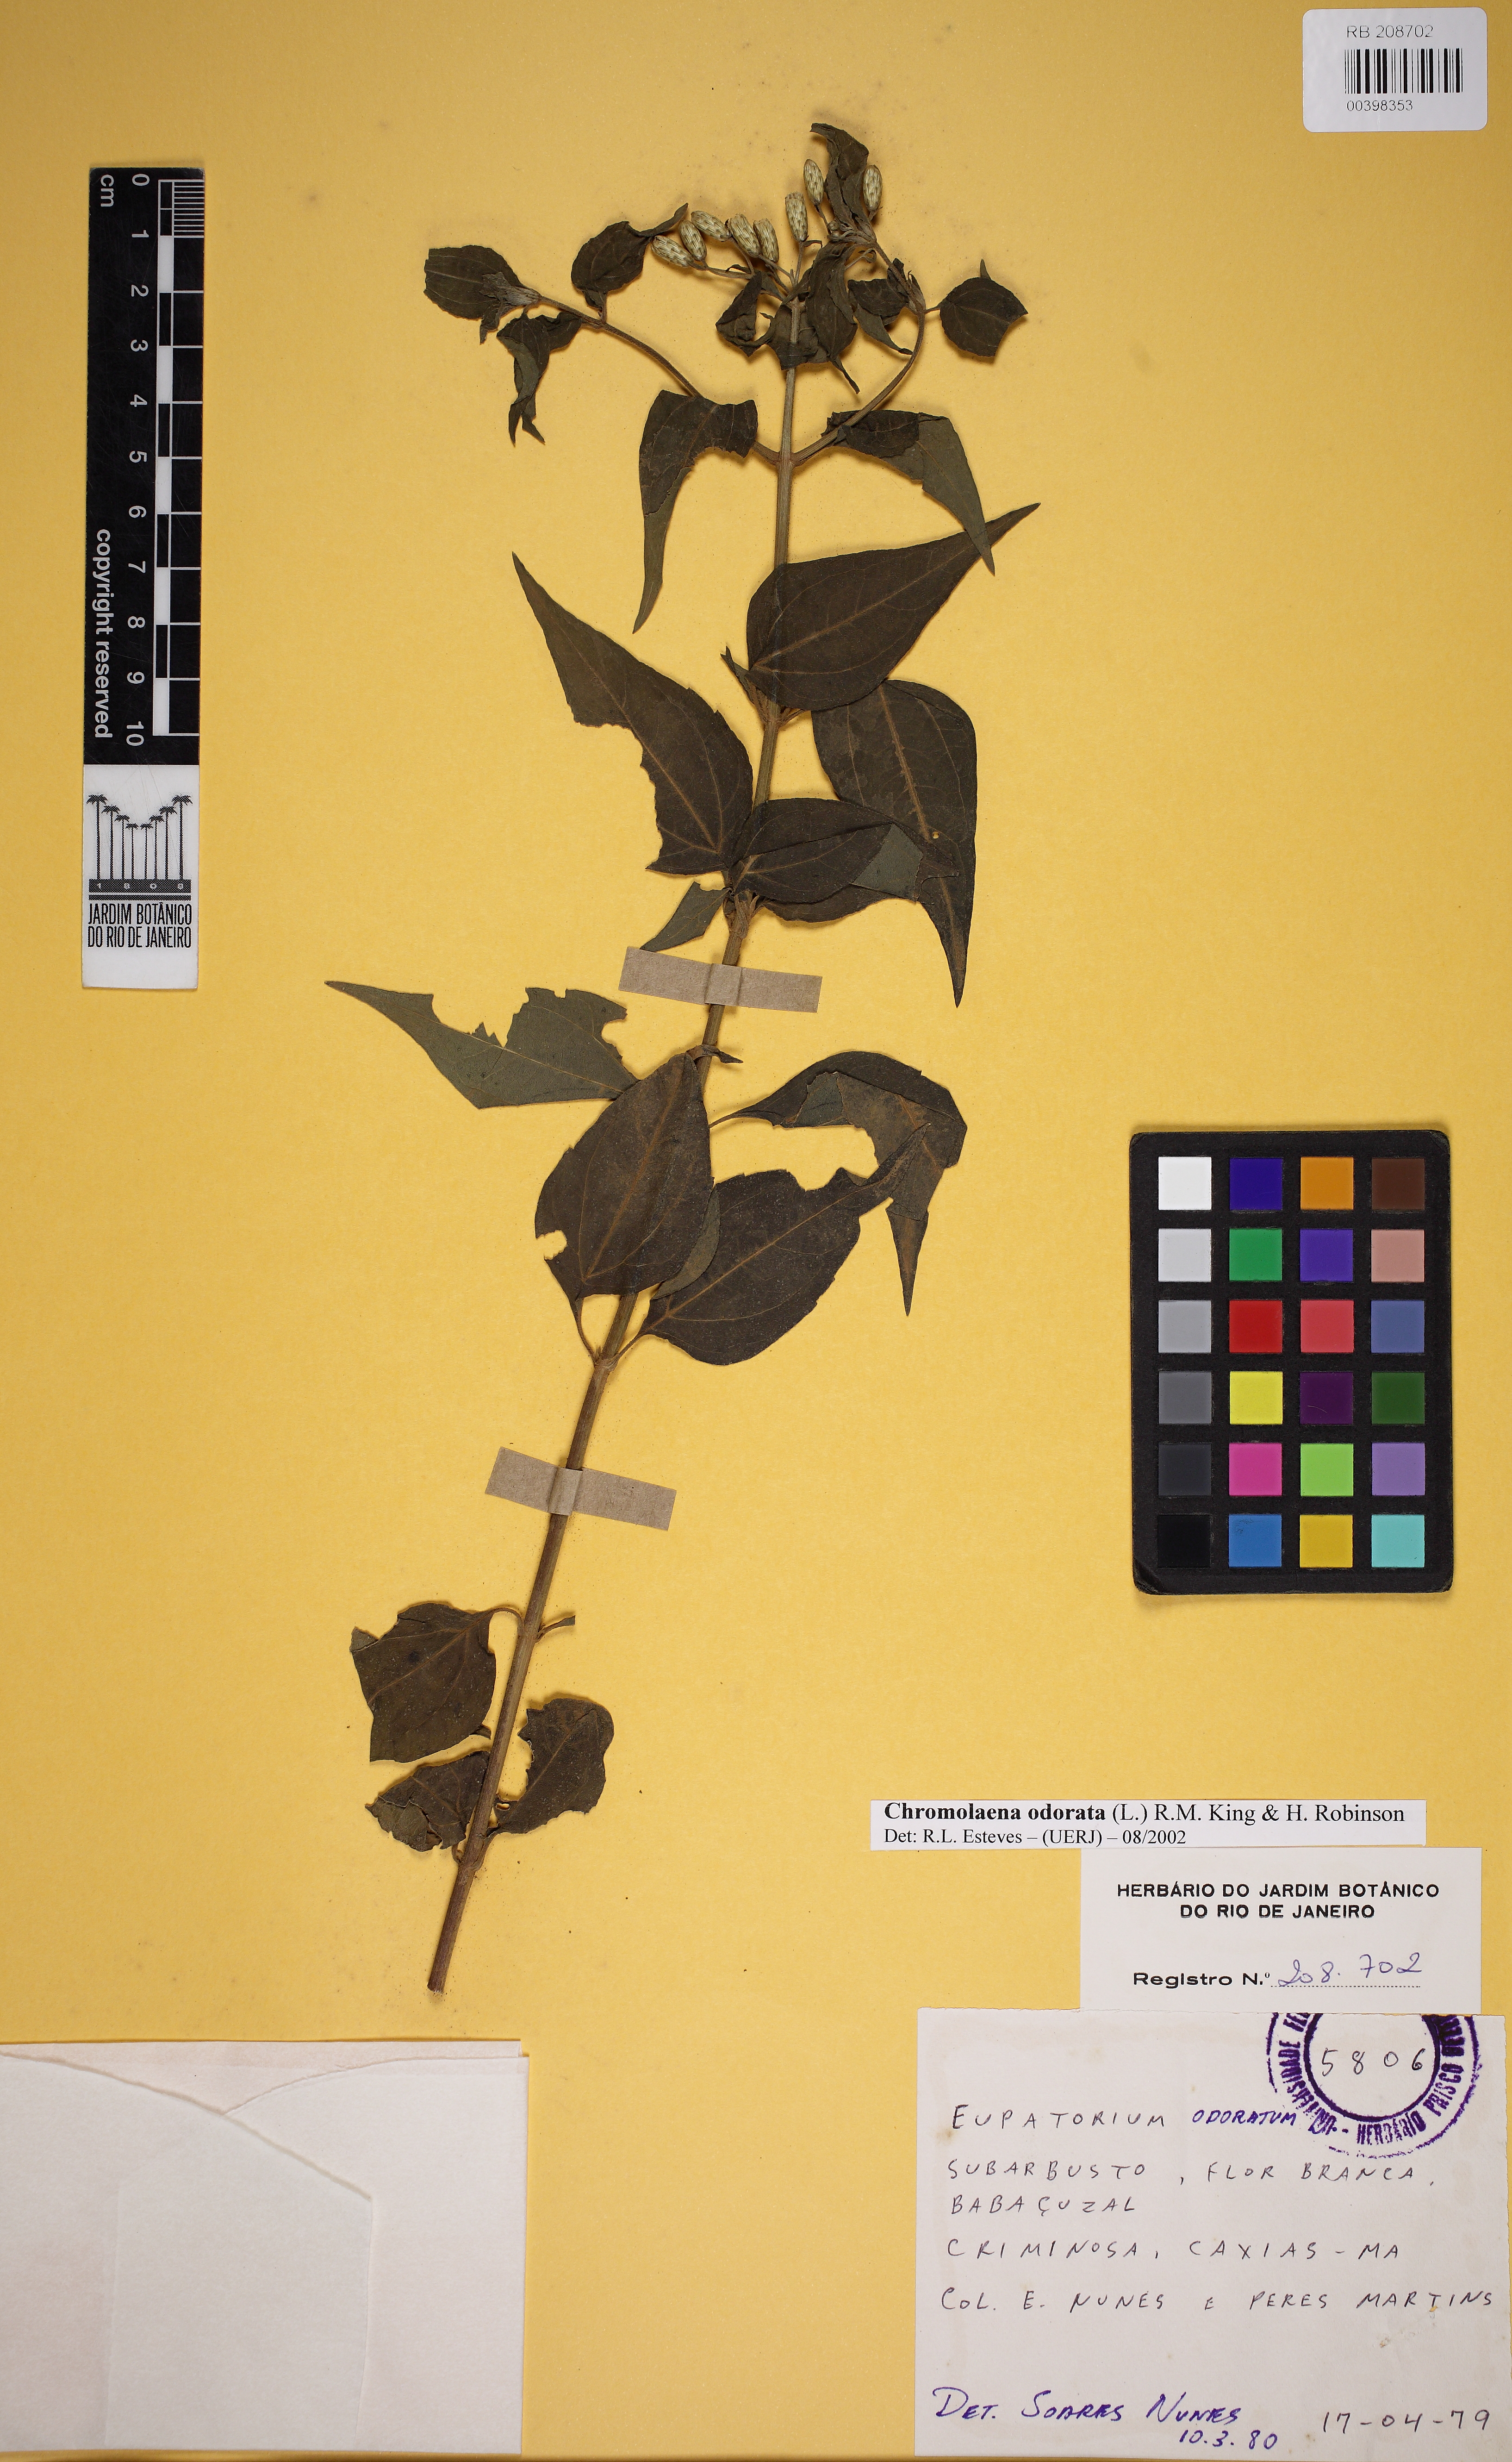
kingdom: Plantae
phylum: Tracheophyta
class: Magnoliopsida
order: Asterales
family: Asteraceae
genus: Chromolaena
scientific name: Chromolaena odorata
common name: Siamweed
